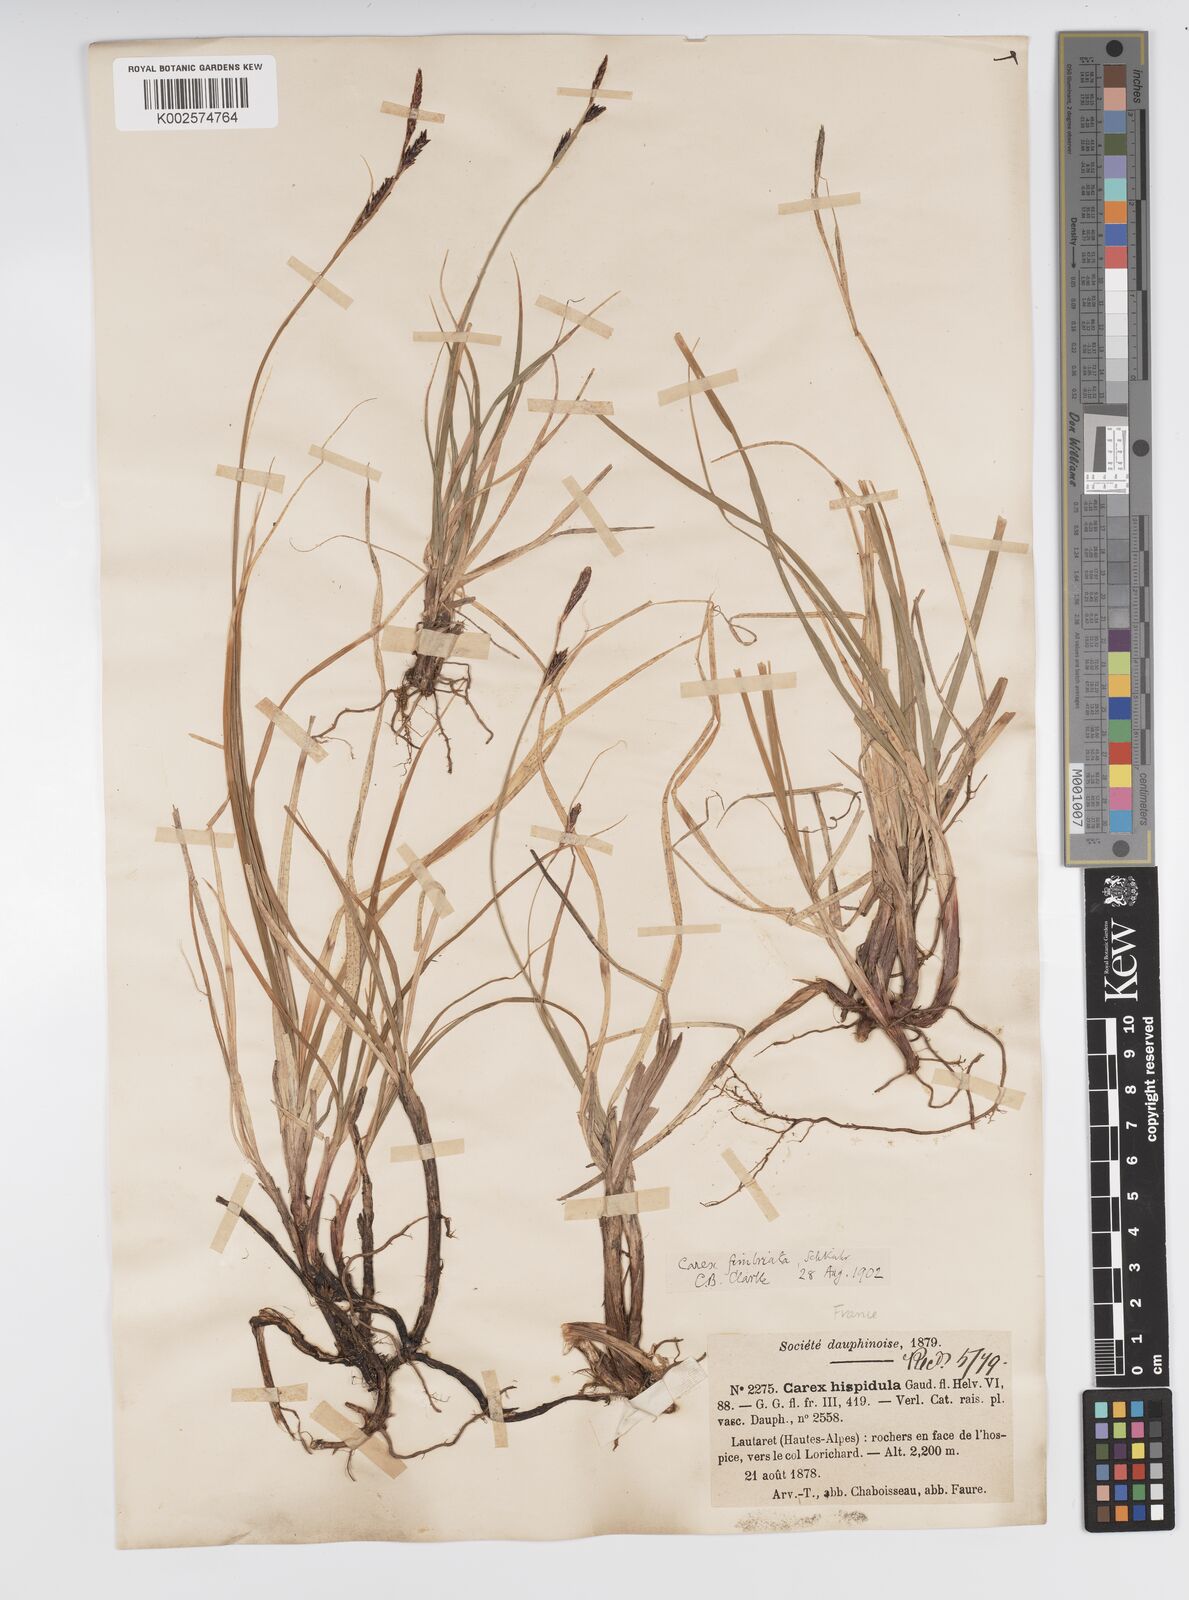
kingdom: Plantae
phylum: Tracheophyta
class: Liliopsida
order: Poales
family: Cyperaceae
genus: Carex
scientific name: Carex fimbriata
